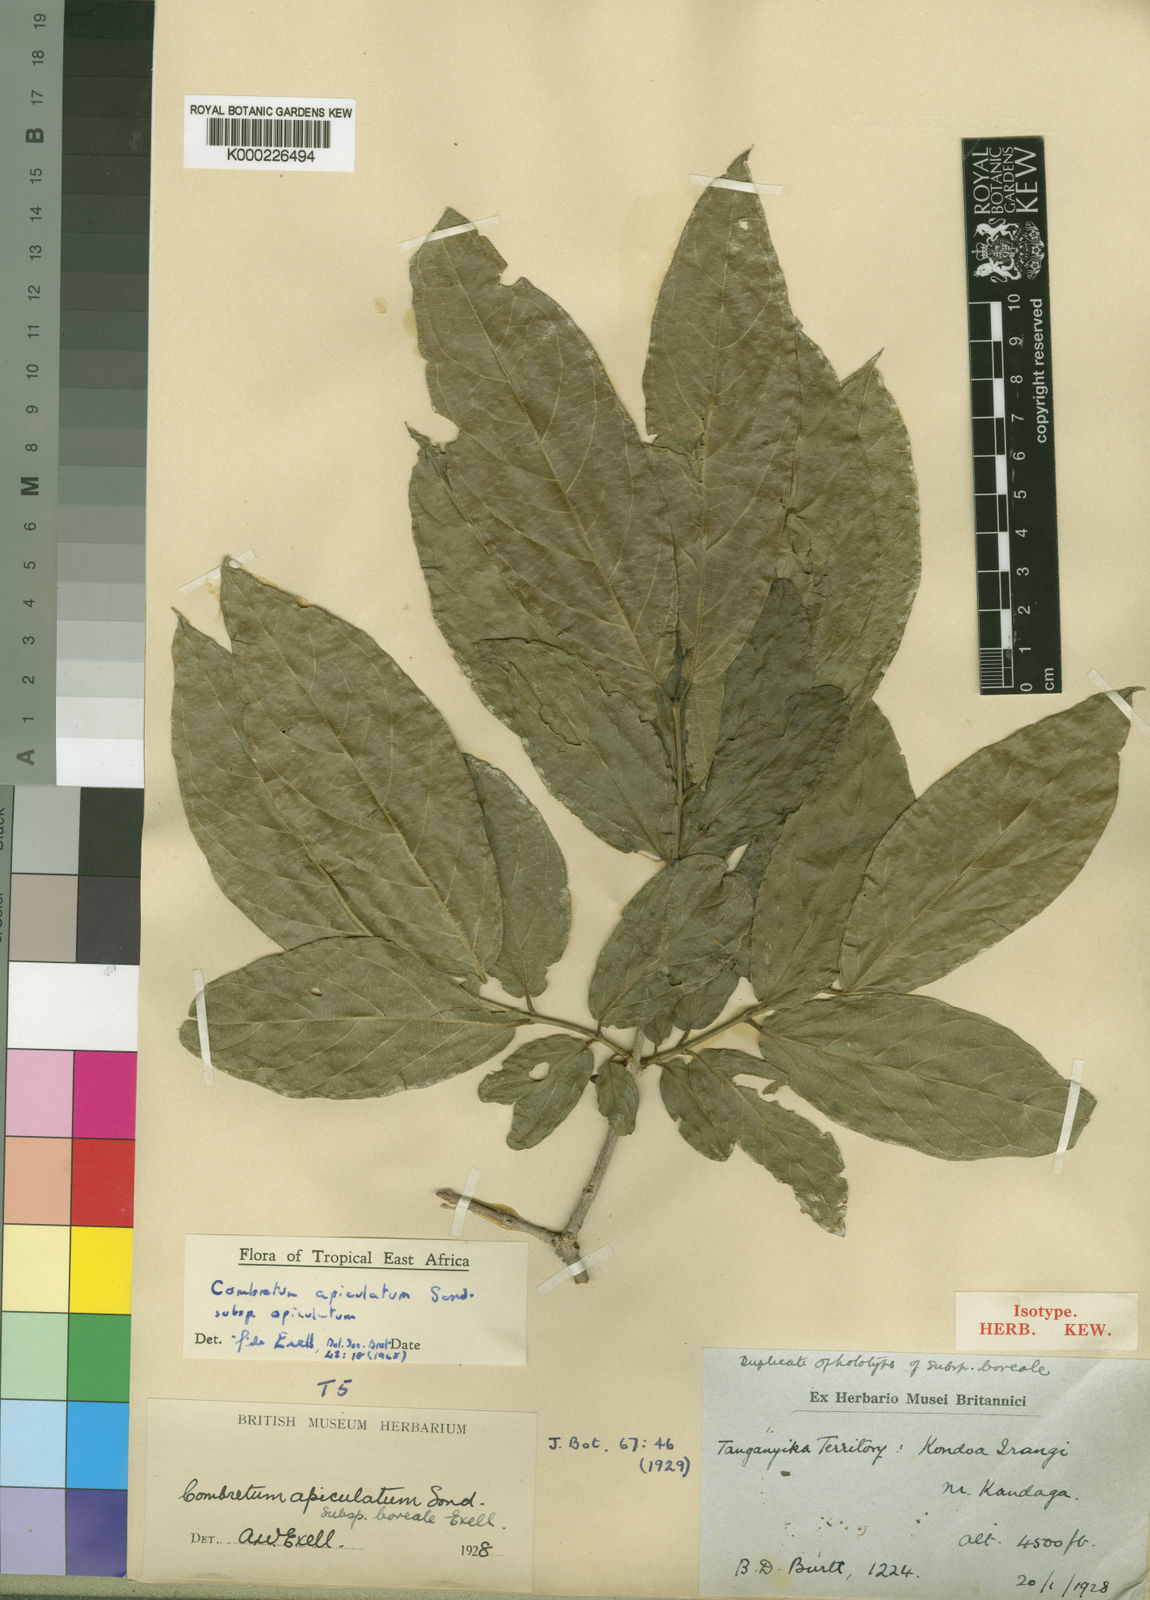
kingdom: Plantae
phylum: Tracheophyta
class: Magnoliopsida
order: Myrtales
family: Combretaceae
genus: Combretum
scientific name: Combretum apiculatum
